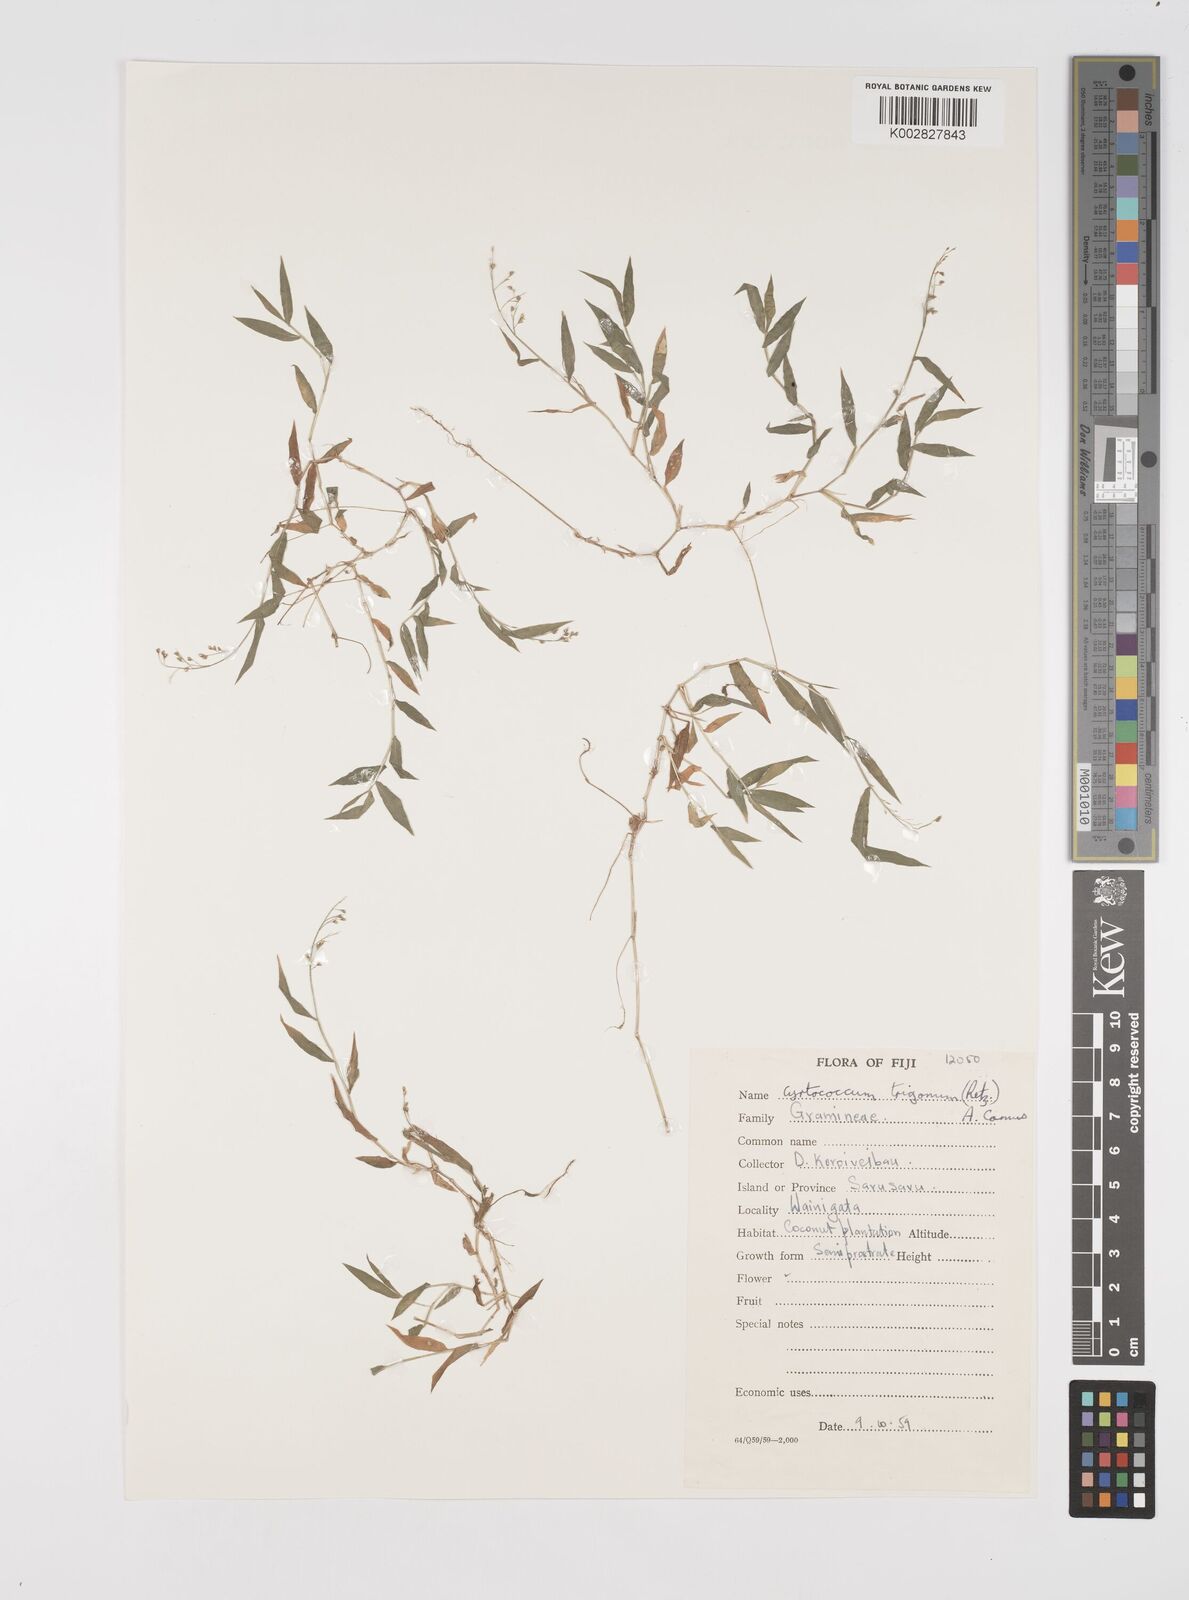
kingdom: Plantae
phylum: Tracheophyta
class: Liliopsida
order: Poales
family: Poaceae
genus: Cyrtococcum
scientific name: Cyrtococcum trigonum
